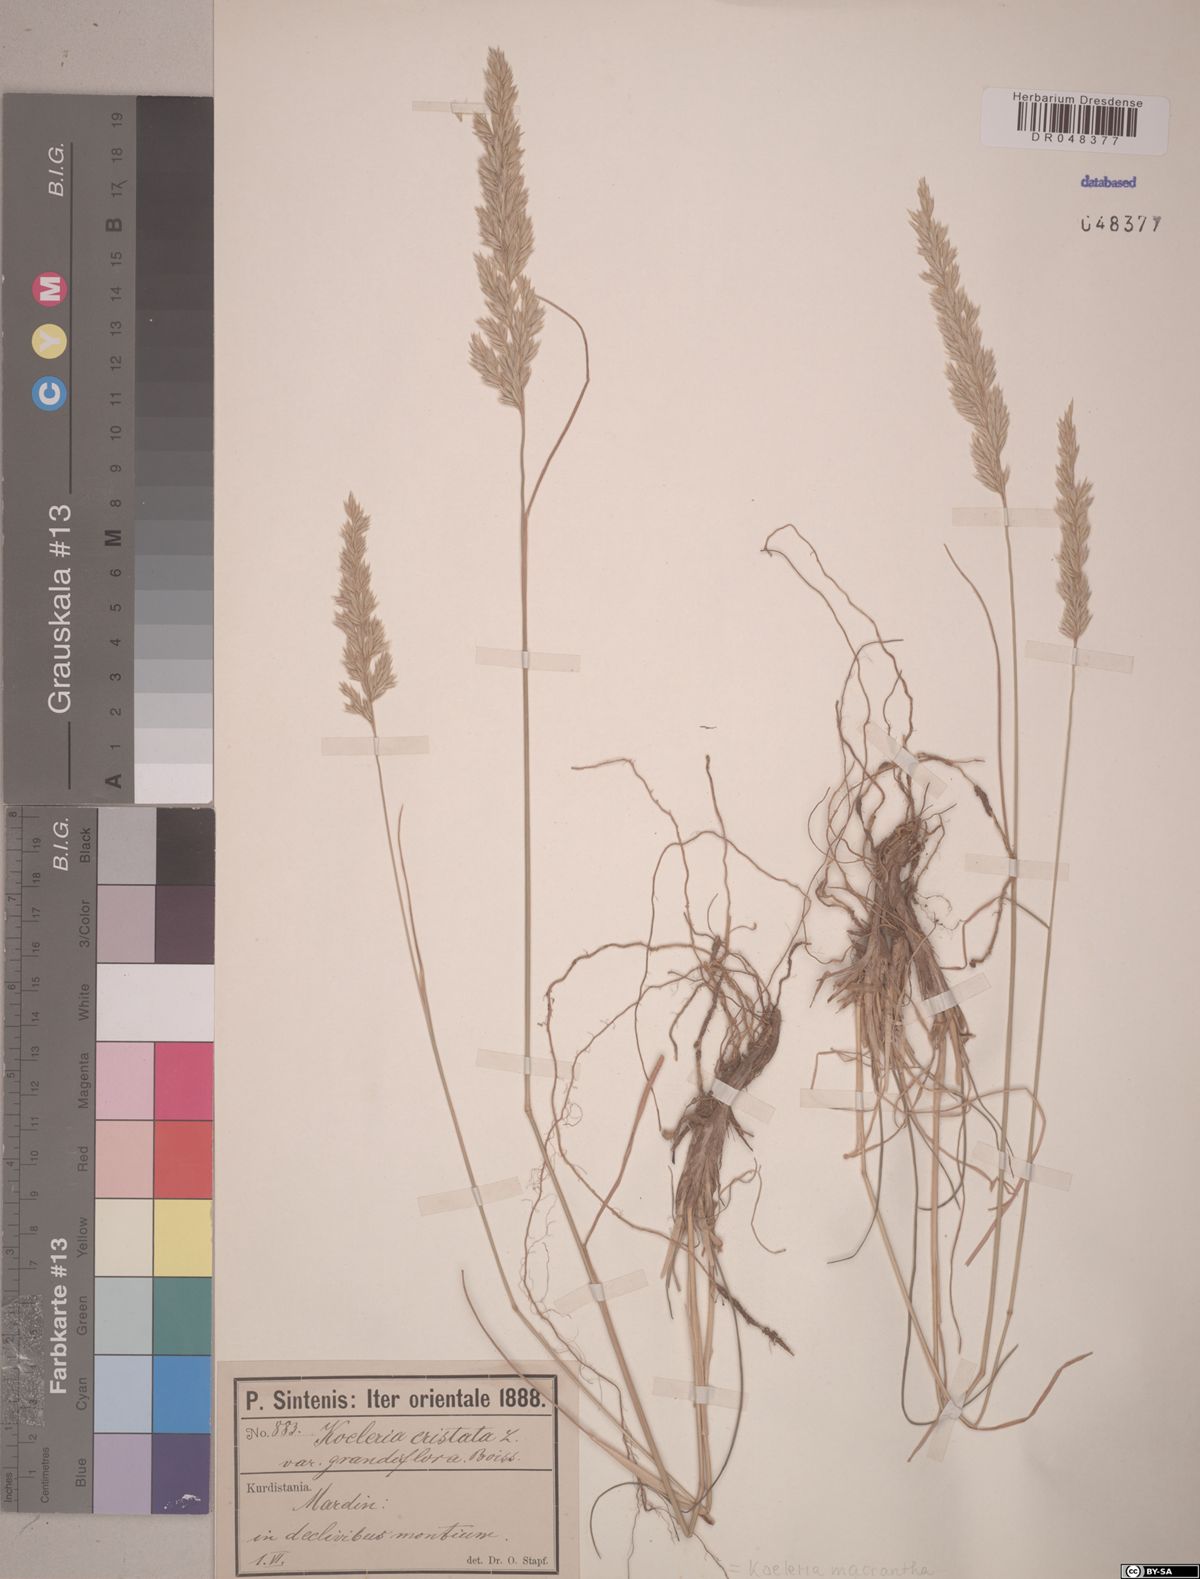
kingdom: Plantae
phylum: Tracheophyta
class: Liliopsida
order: Poales
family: Poaceae
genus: Koeleria
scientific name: Koeleria macrantha
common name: Crested hair-grass
